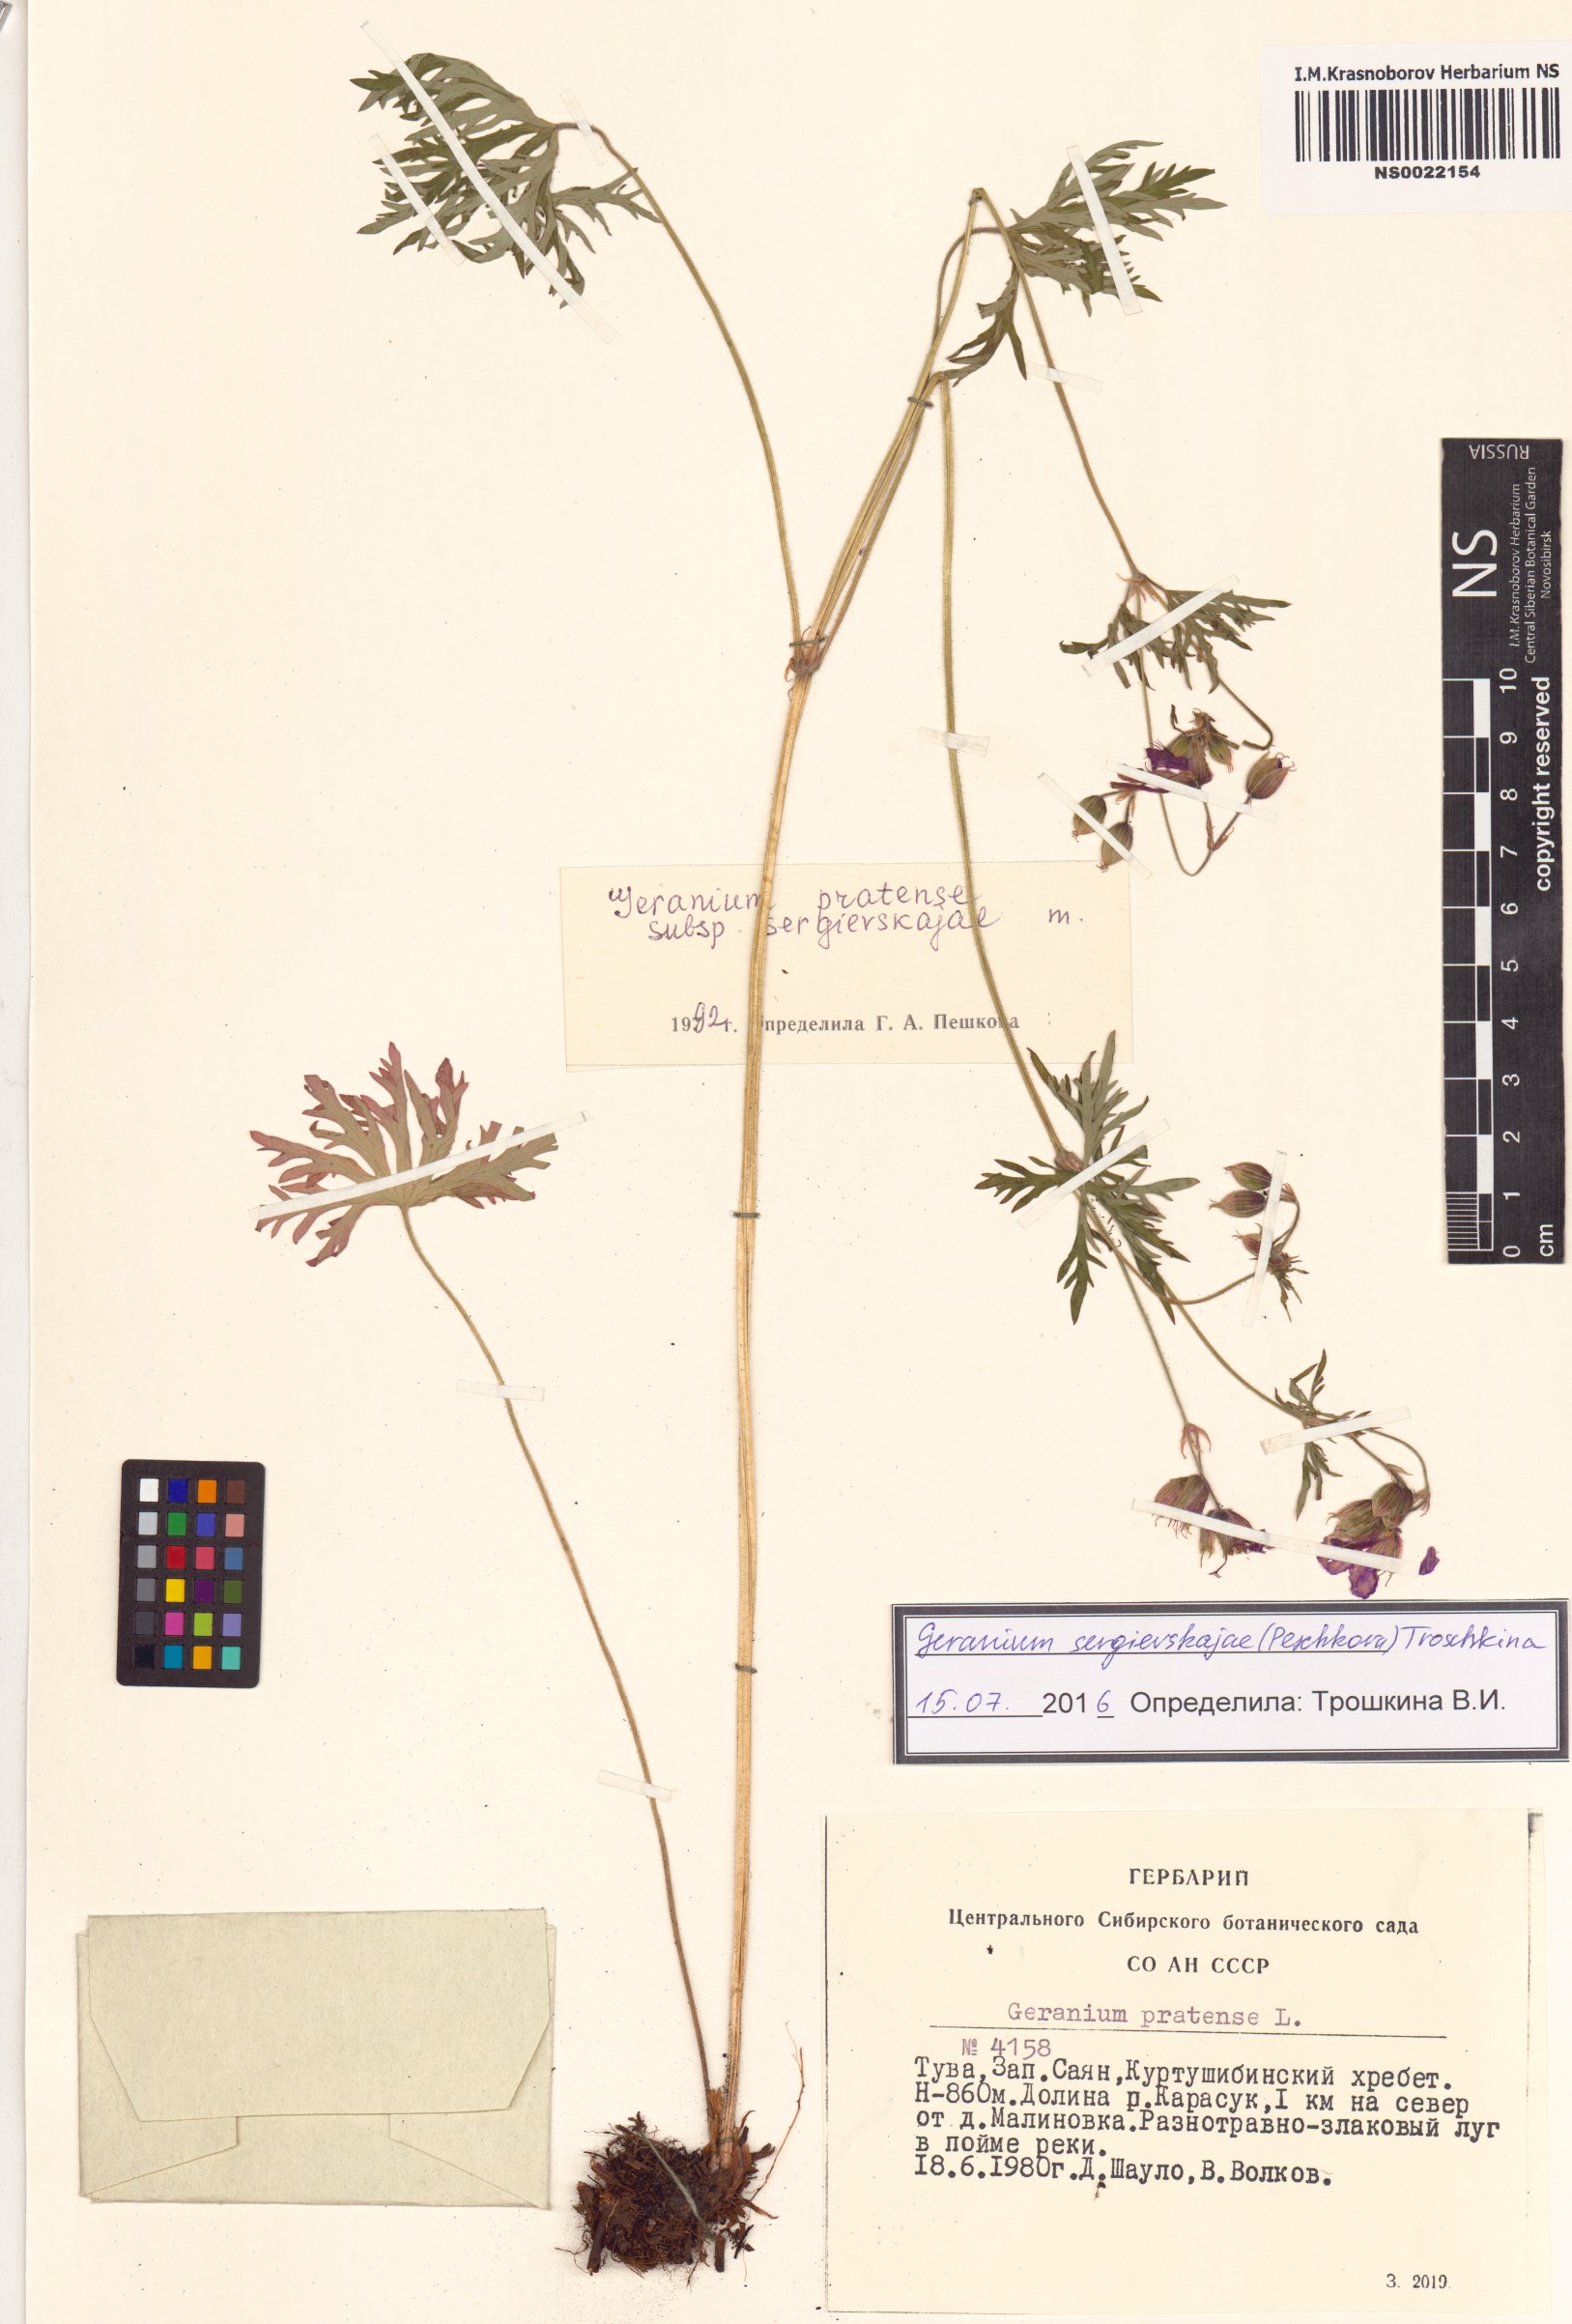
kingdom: Plantae
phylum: Tracheophyta
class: Magnoliopsida
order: Geraniales
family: Geraniaceae
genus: Geranium
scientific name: Geranium pratense
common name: Meadow crane's-bill
